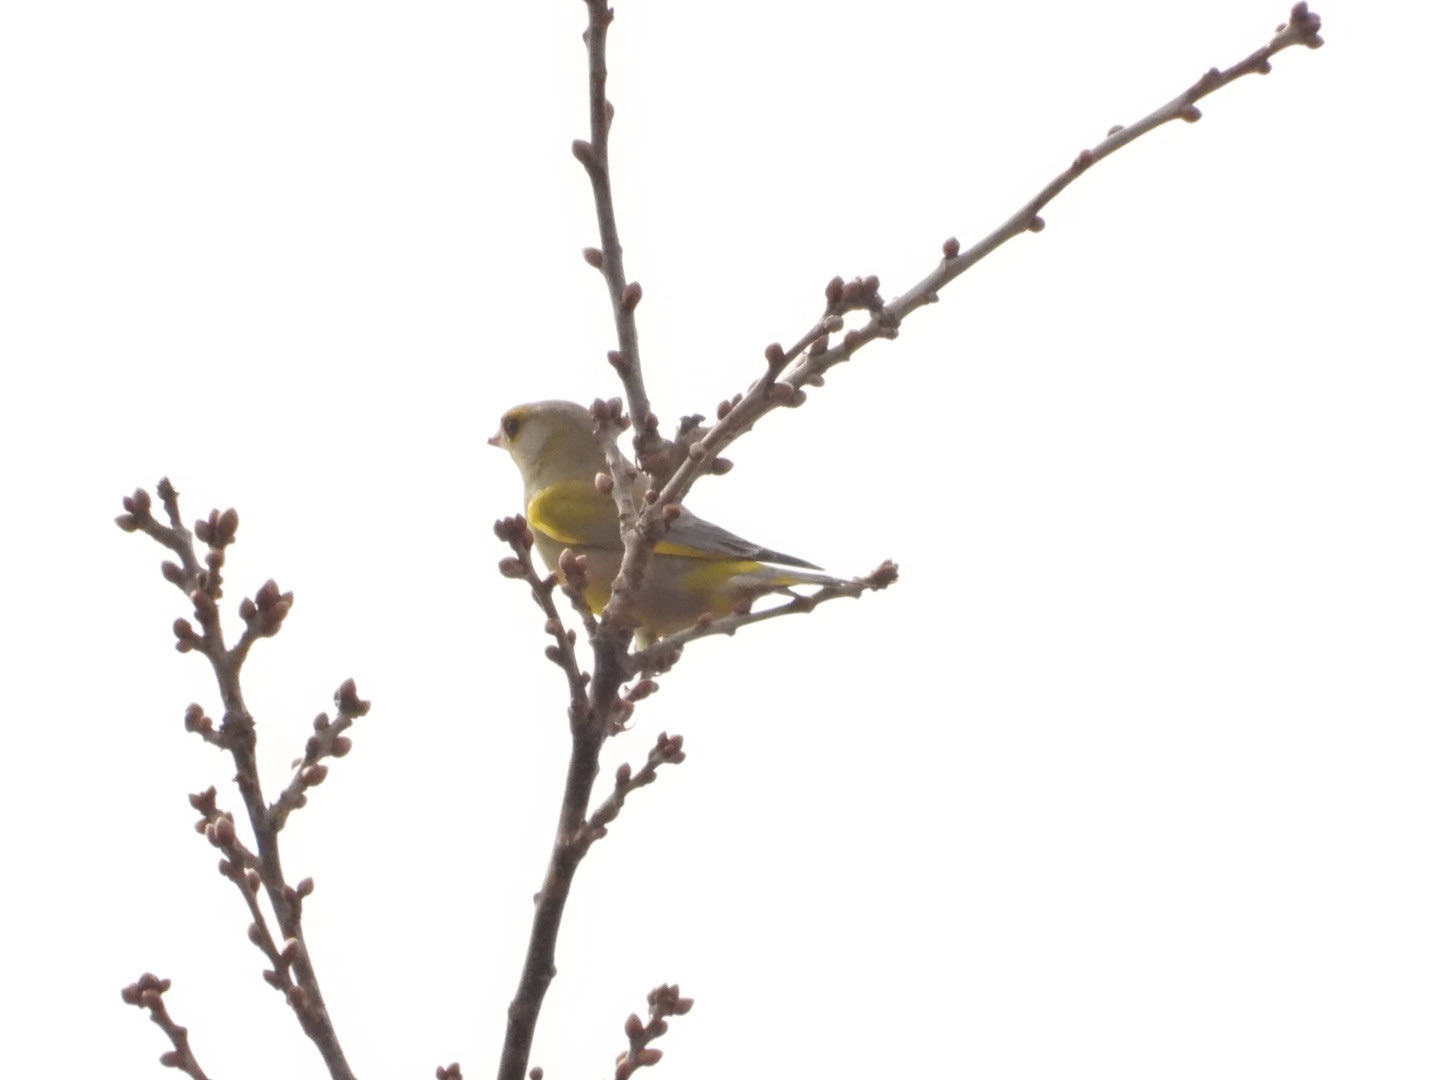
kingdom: Plantae
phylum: Tracheophyta
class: Liliopsida
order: Poales
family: Poaceae
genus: Chloris
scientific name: Chloris chloris
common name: Grønirisk
